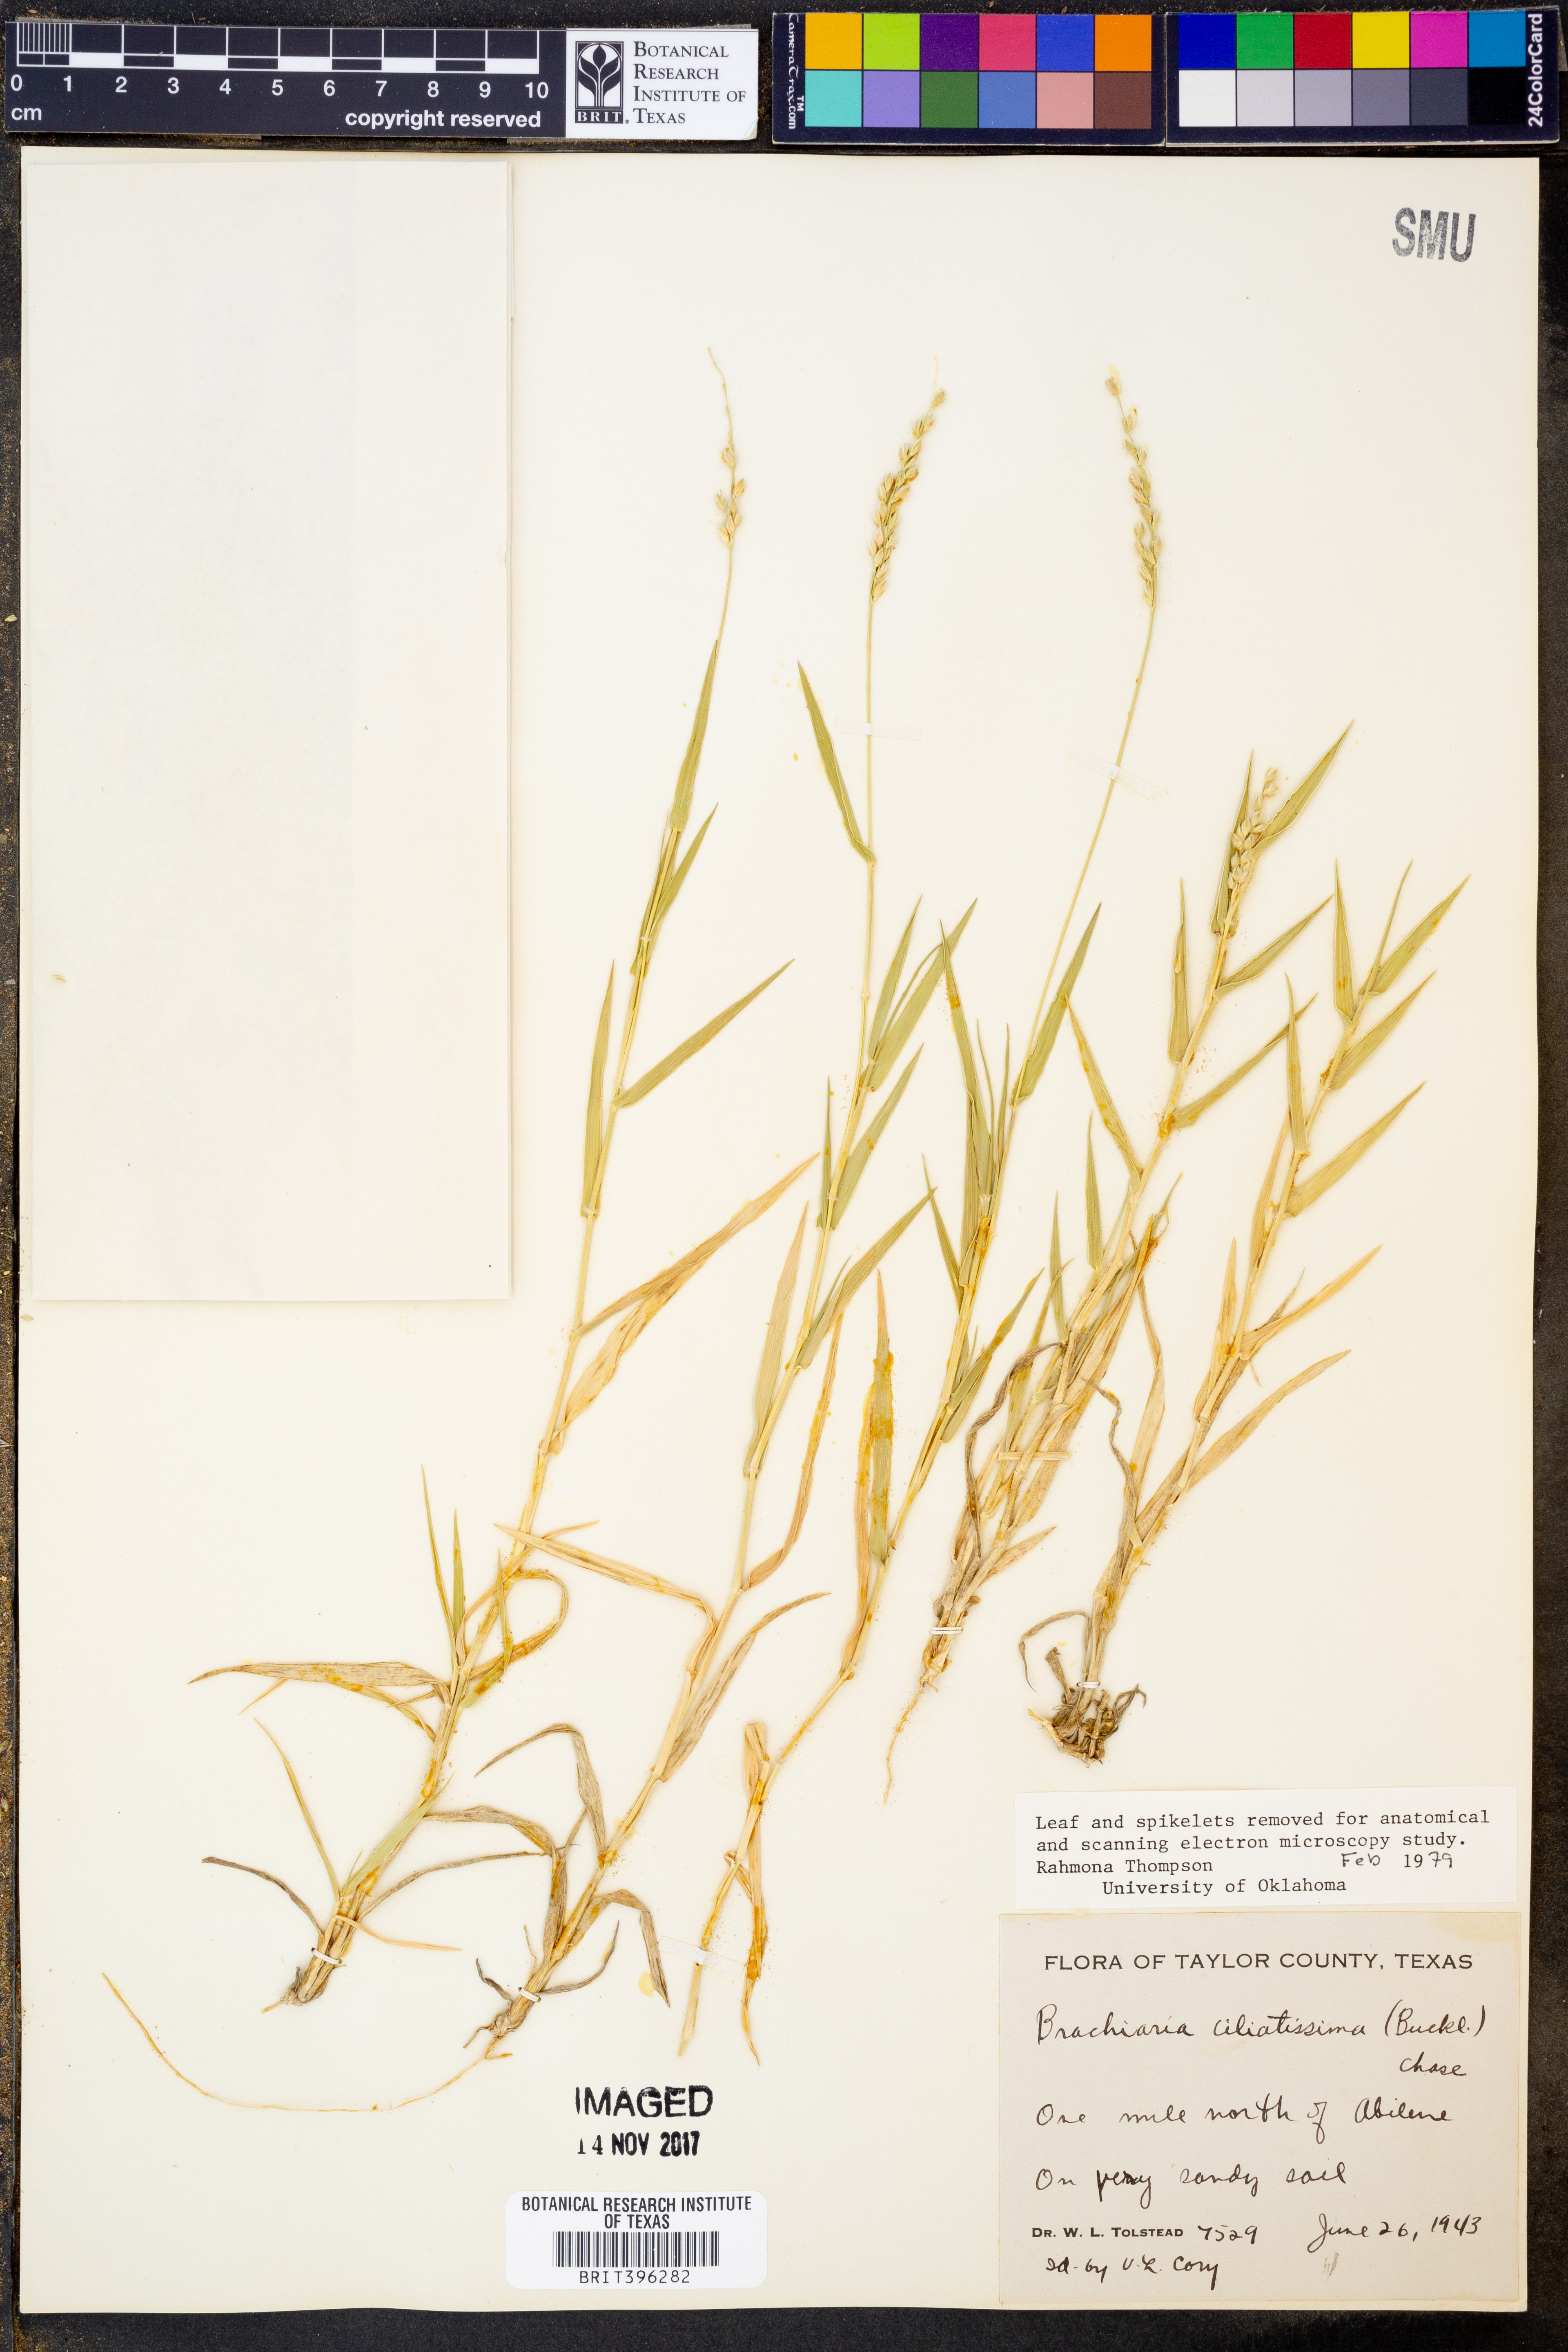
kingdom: Plantae
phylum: Tracheophyta
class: Liliopsida
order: Poales
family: Poaceae
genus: Urochloa
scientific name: Urochloa ciliatissima
